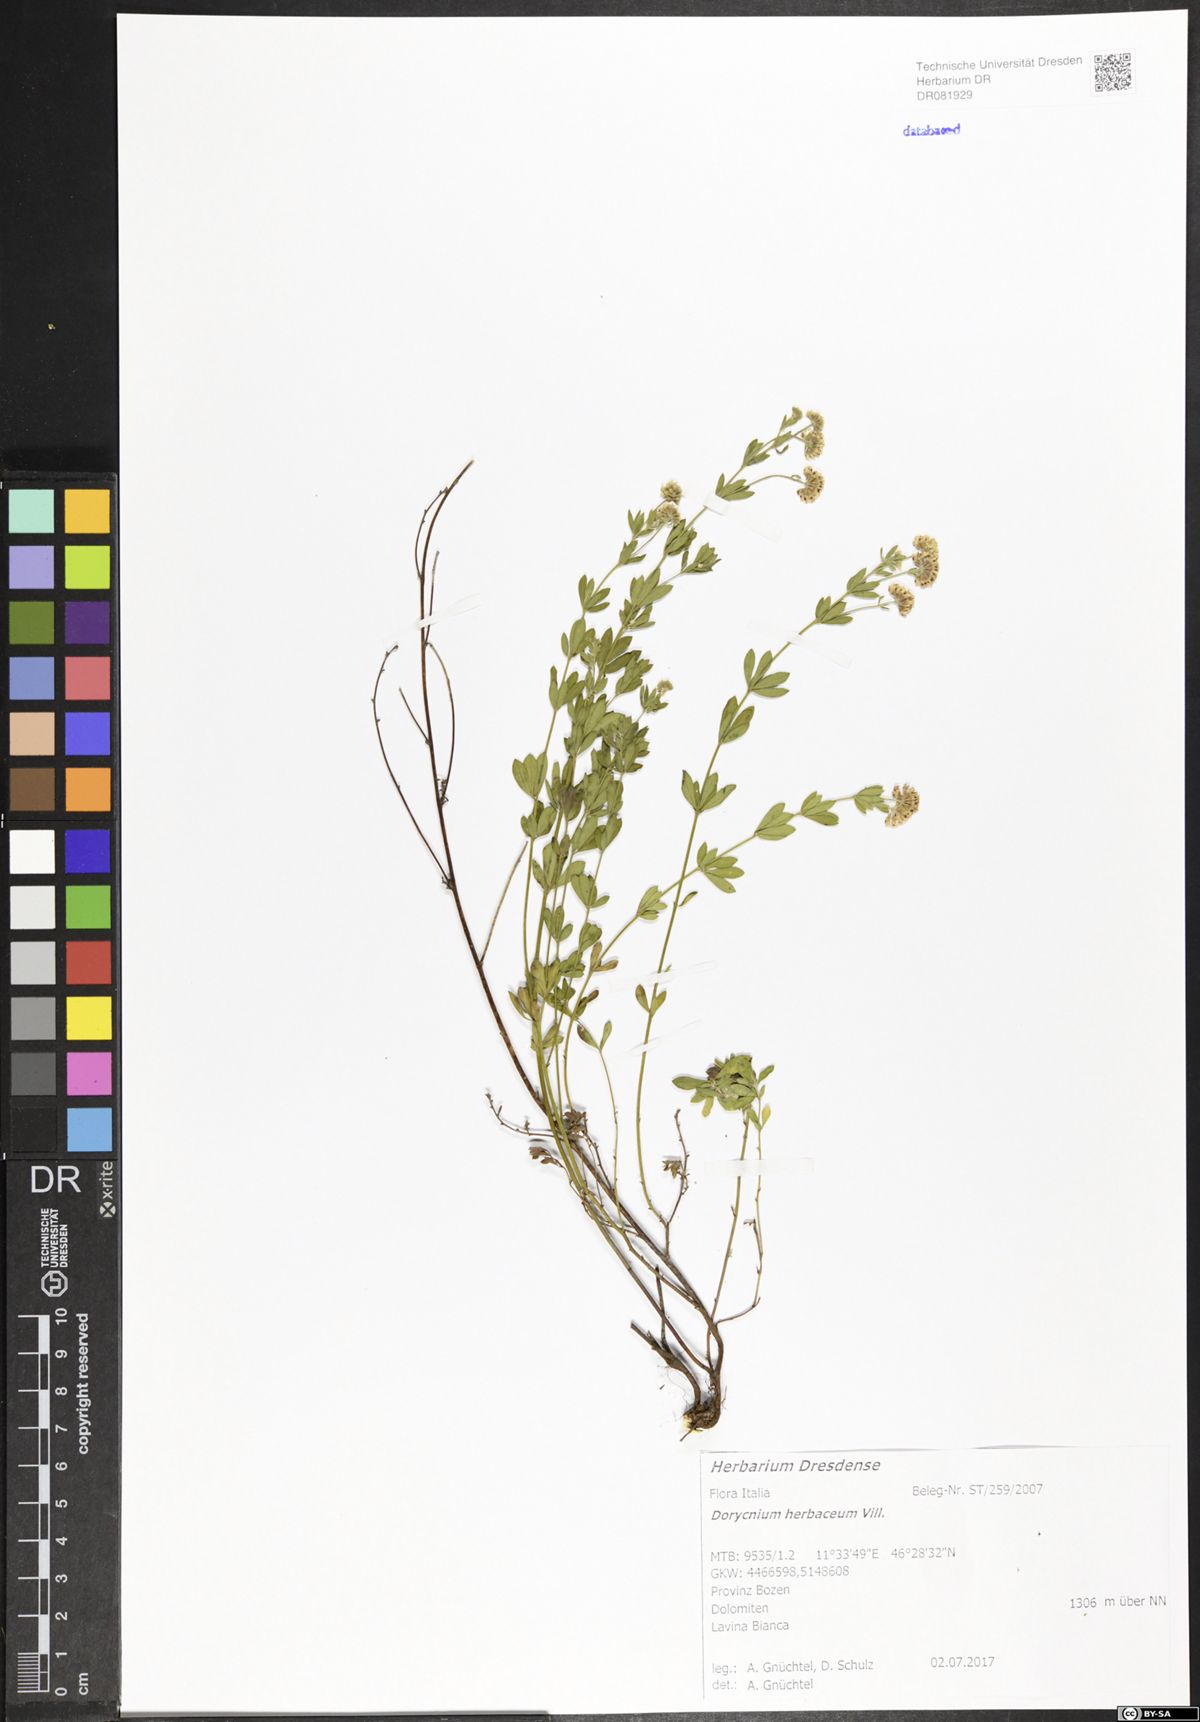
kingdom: Plantae
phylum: Tracheophyta
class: Magnoliopsida
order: Fabales
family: Fabaceae
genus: Lotus
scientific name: Lotus herbaceus
